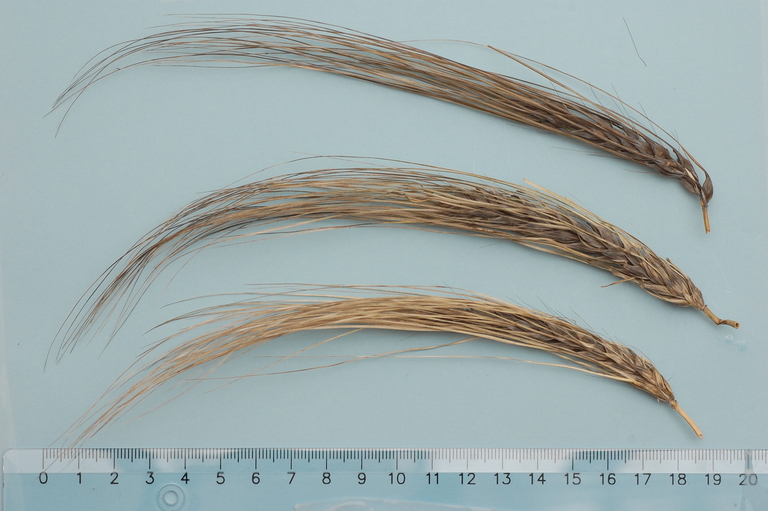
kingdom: Plantae
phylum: Tracheophyta
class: Liliopsida
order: Poales
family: Poaceae
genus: Hordeum
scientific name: Hordeum vulgare
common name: Common barley
